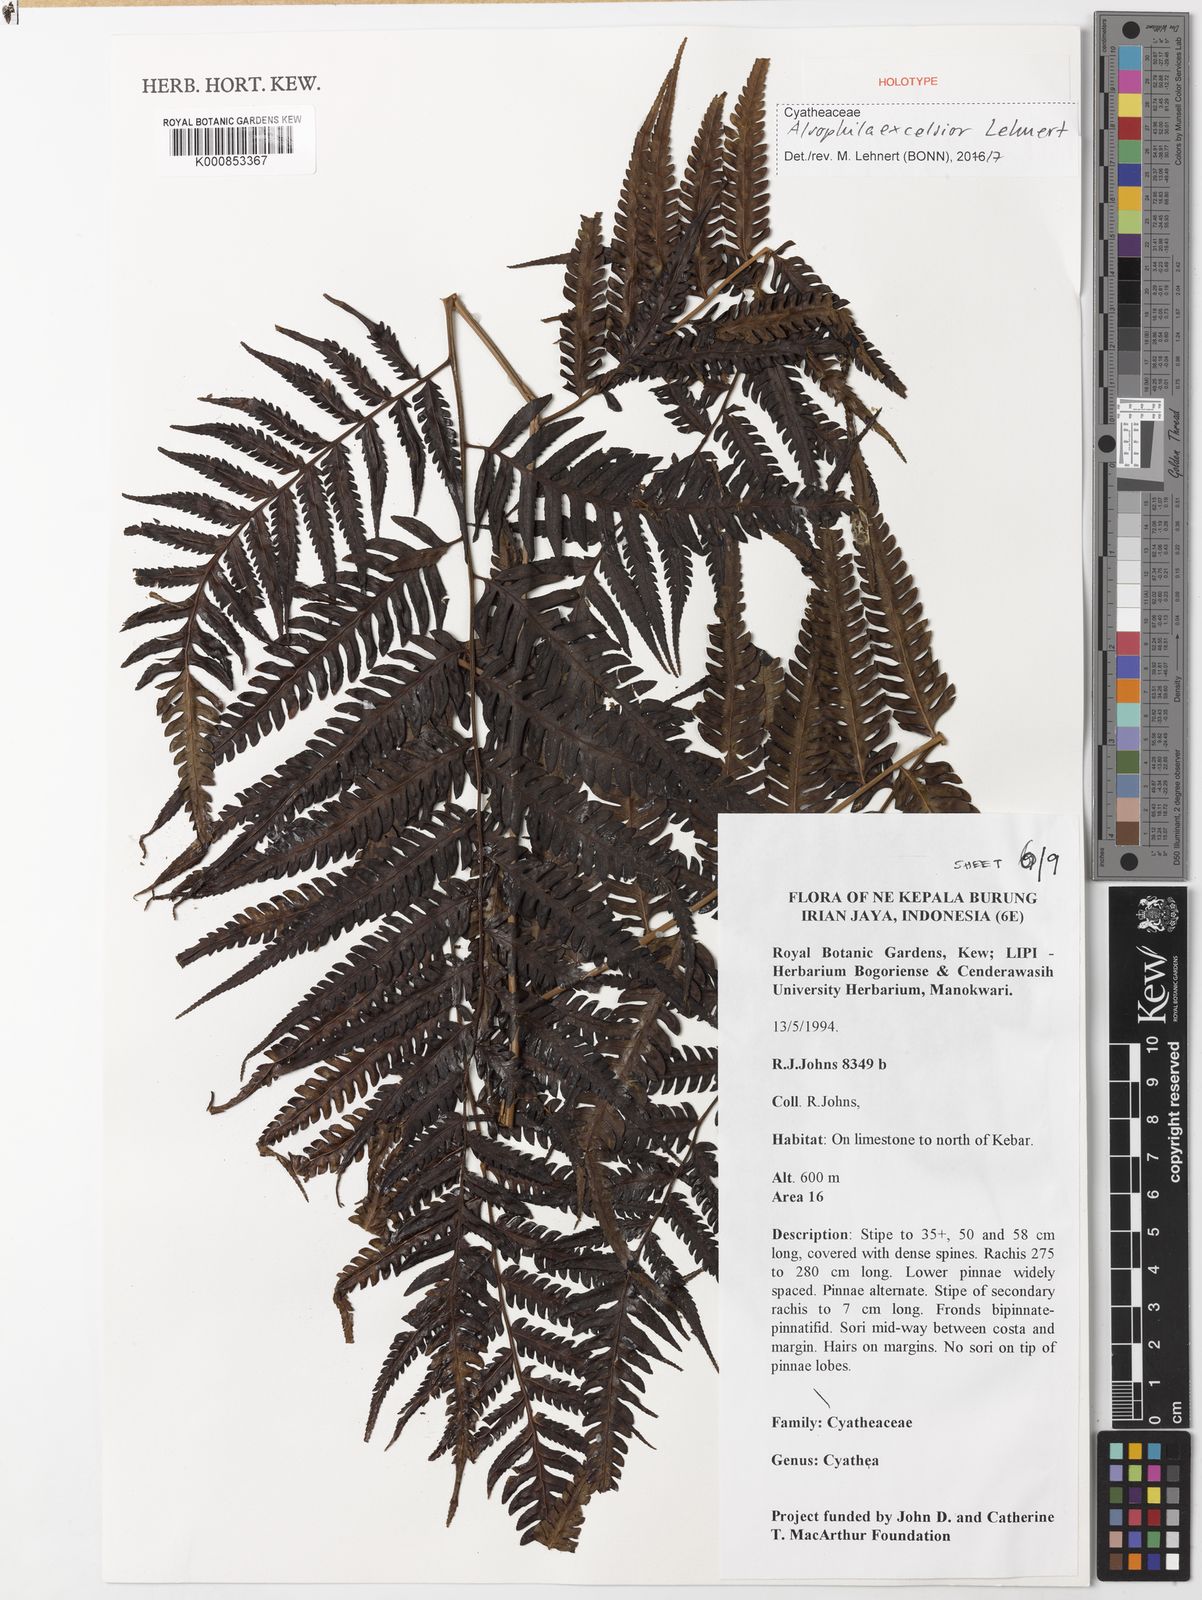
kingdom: Plantae
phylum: Tracheophyta
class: Polypodiopsida
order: Cyatheales
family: Cyatheaceae
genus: Alsophila
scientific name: Alsophila excelsior
